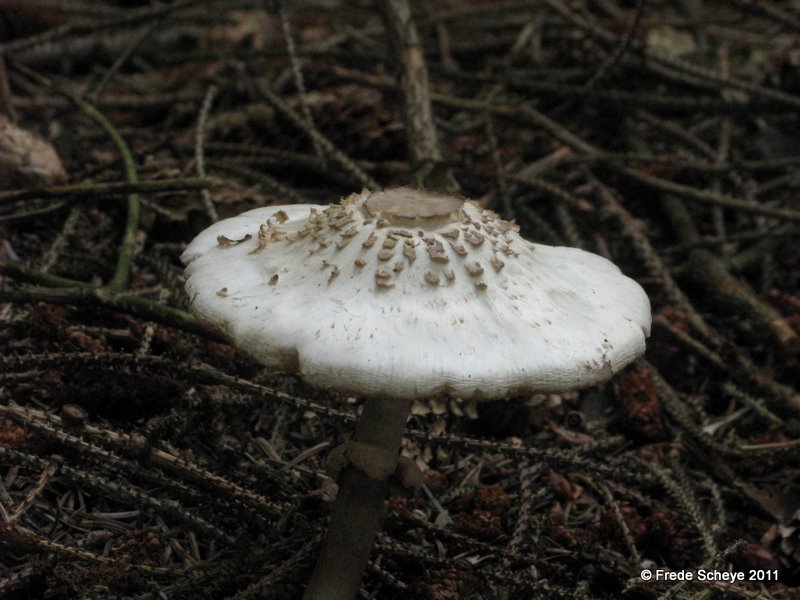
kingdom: Fungi
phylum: Basidiomycota
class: Agaricomycetes
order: Agaricales
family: Agaricaceae
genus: Leucoagaricus
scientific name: Leucoagaricus nympharum
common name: gran-silkehat
